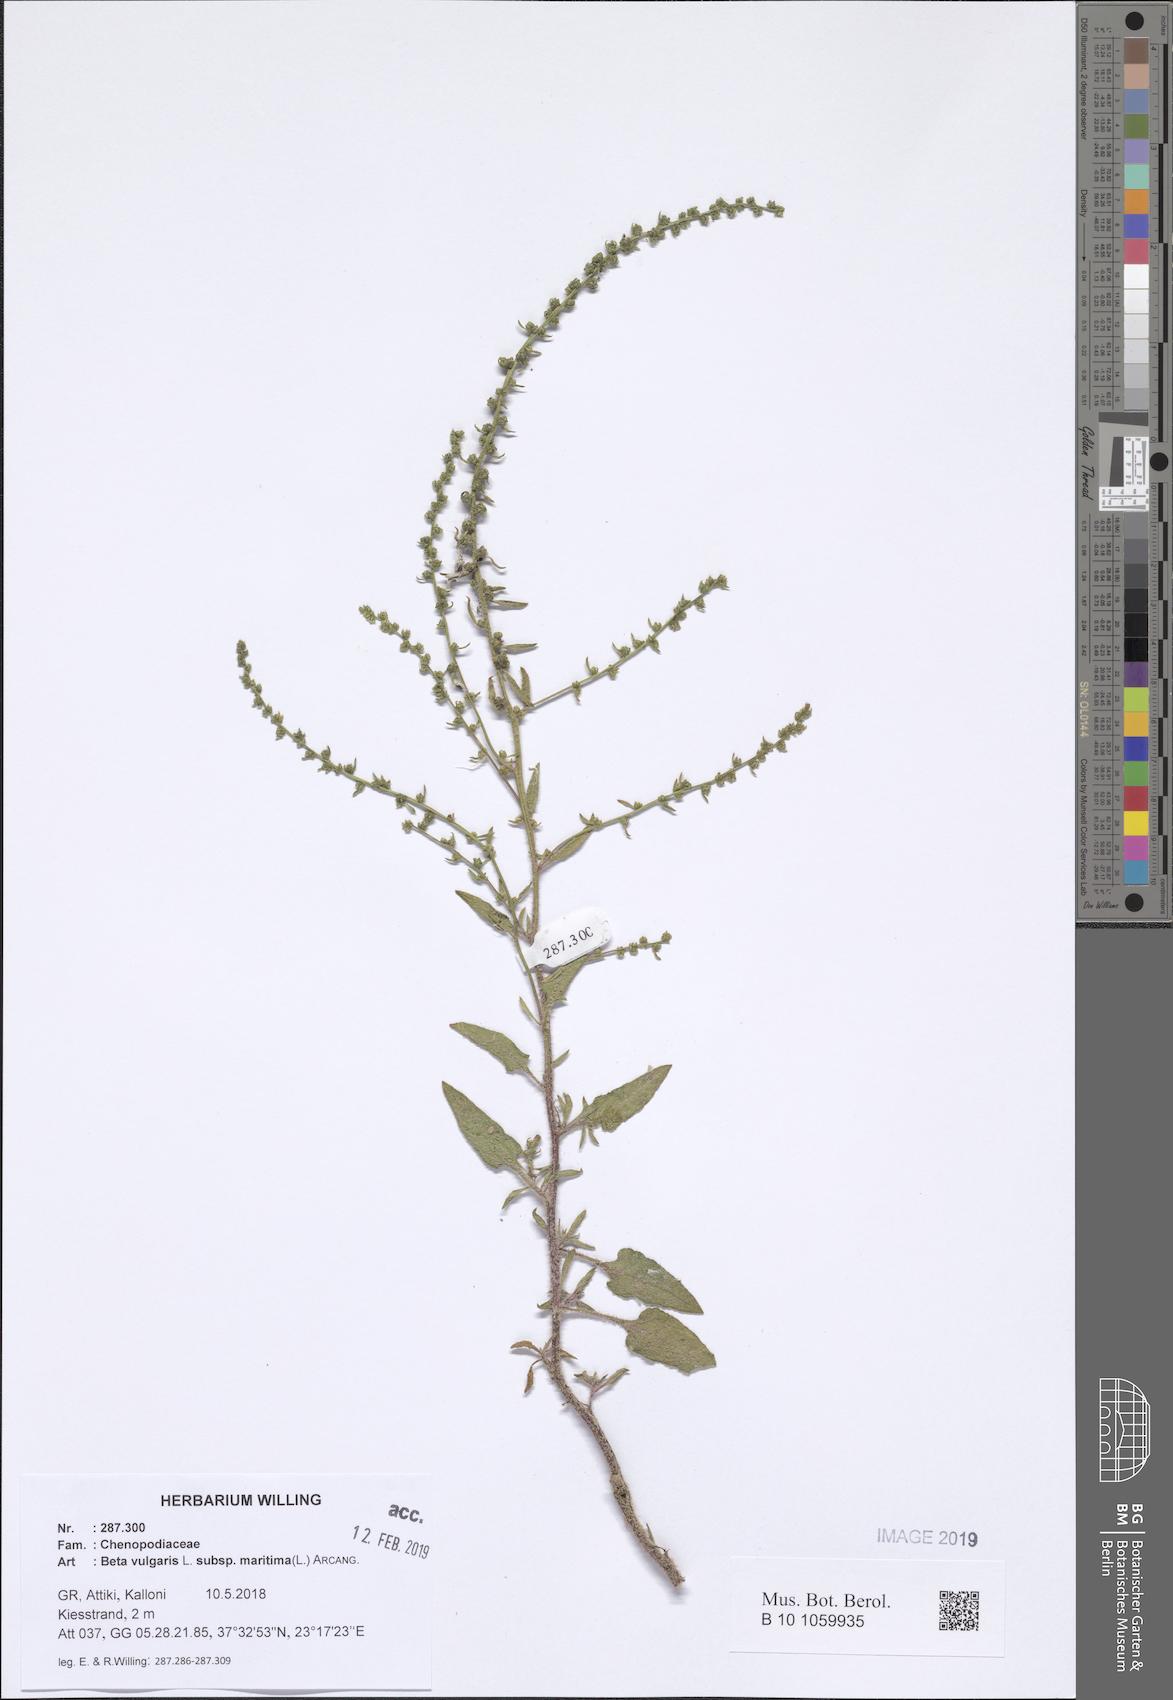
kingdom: Plantae
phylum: Tracheophyta
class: Magnoliopsida
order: Caryophyllales
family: Amaranthaceae
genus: Beta
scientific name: Beta maritima
